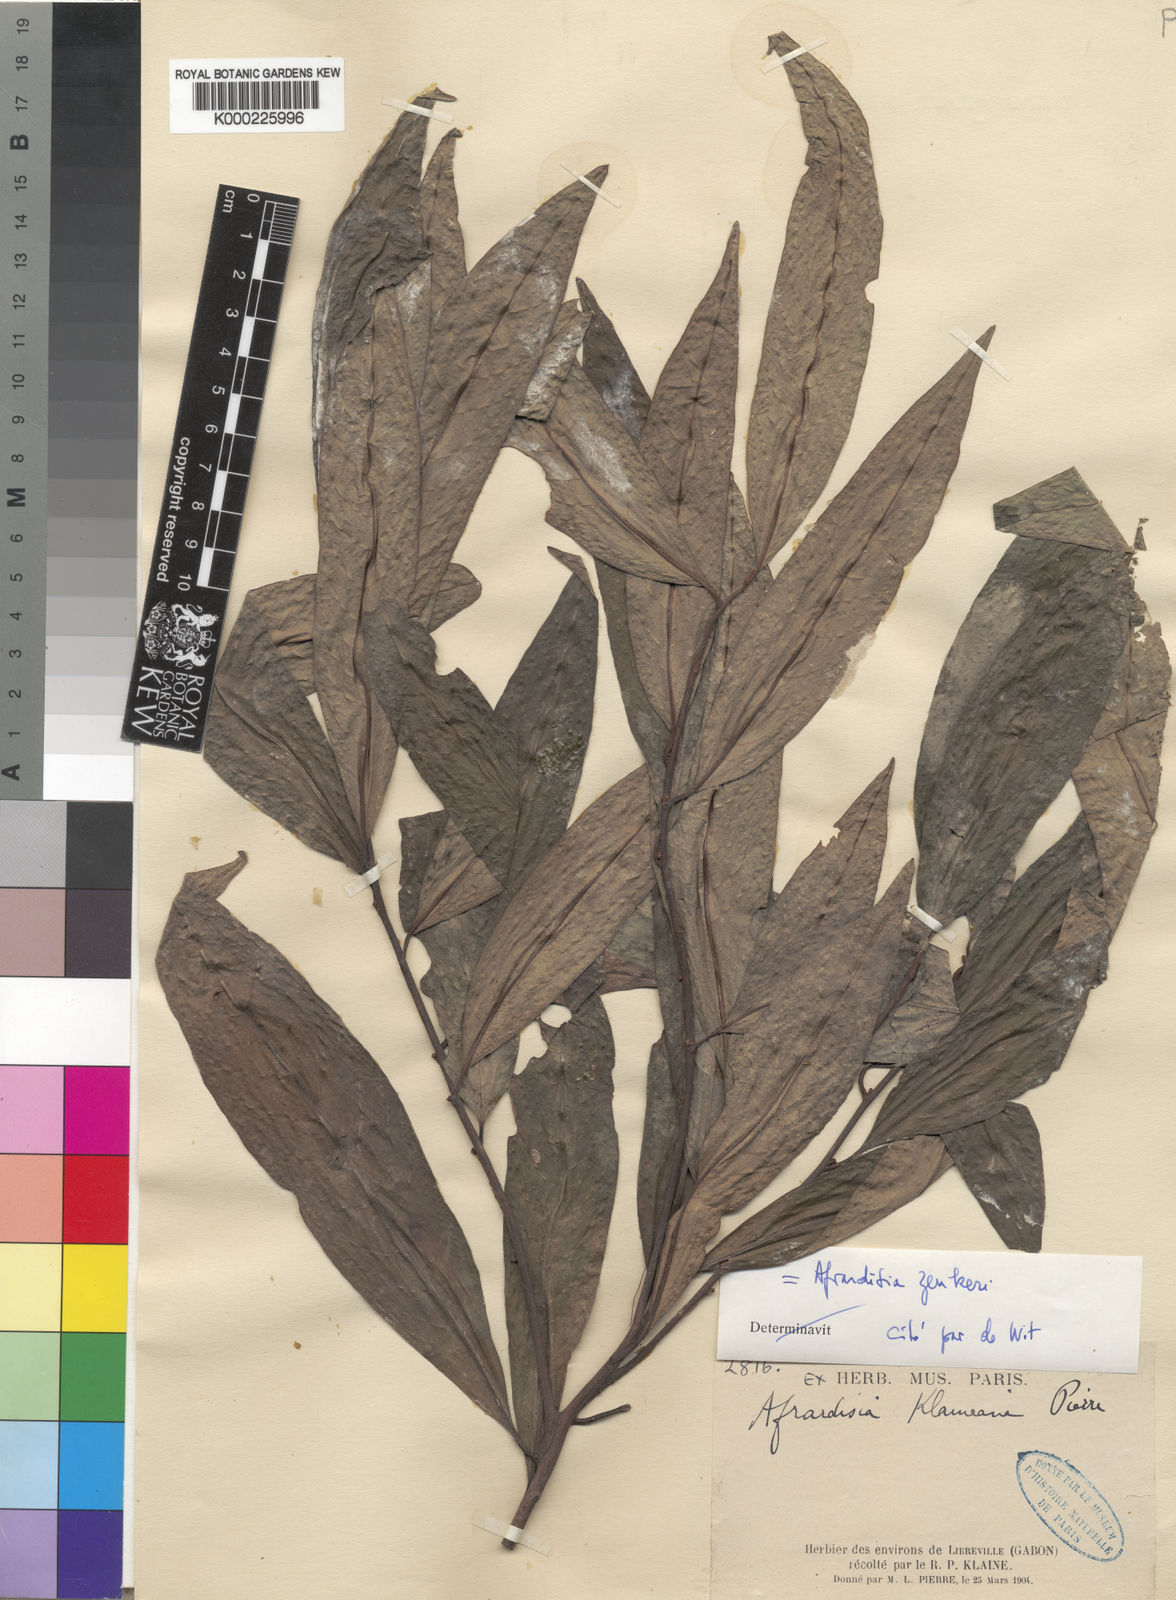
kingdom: Plantae
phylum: Tracheophyta
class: Magnoliopsida
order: Ericales
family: Primulaceae
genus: Ardisia
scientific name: Ardisia pierreana
